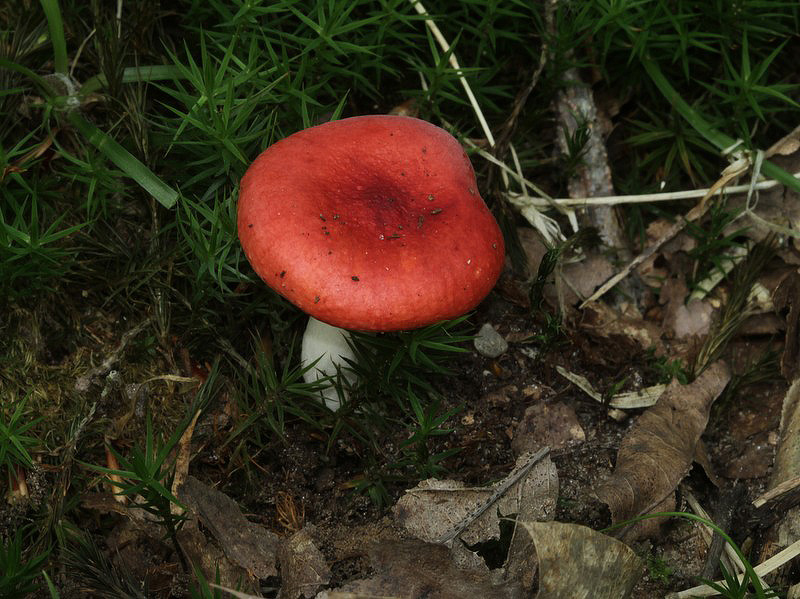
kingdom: Fungi
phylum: Basidiomycota
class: Agaricomycetes
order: Russulales
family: Russulaceae
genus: Russula
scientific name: Russula nobilis
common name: lille gift-skørhat
